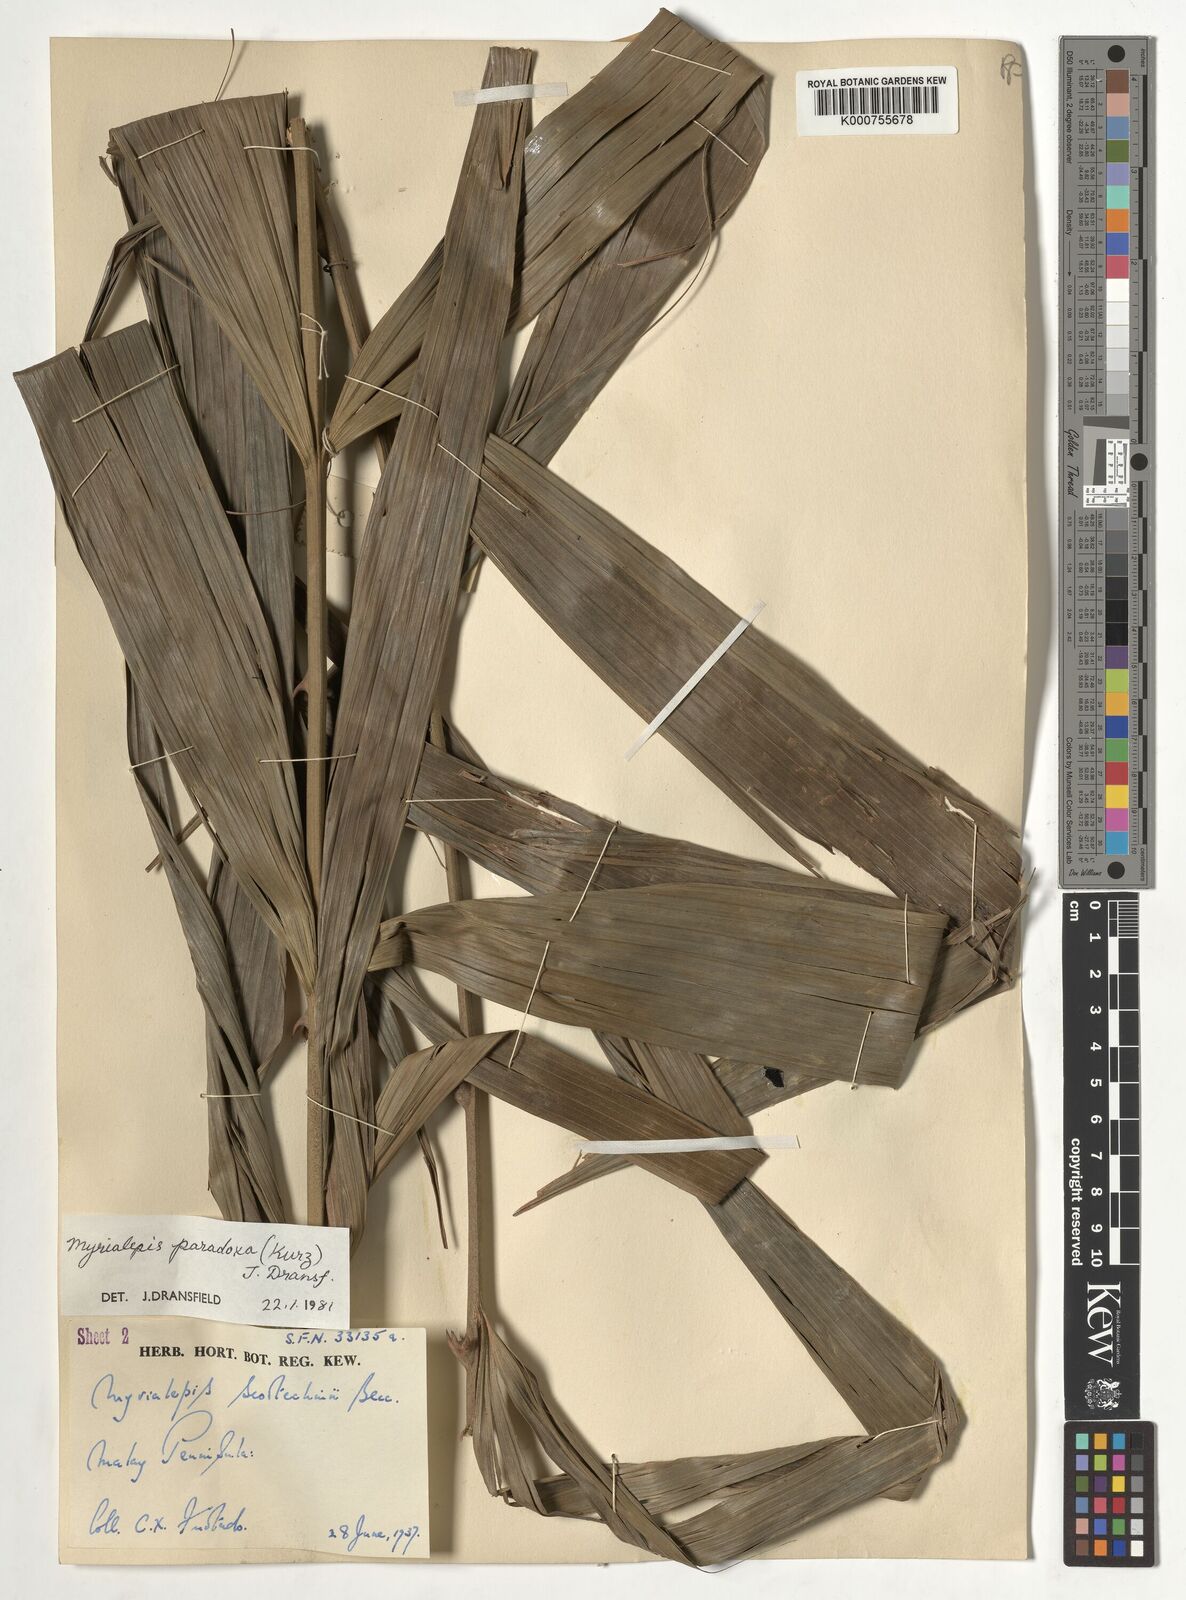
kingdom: Plantae
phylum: Tracheophyta
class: Liliopsida
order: Arecales
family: Arecaceae
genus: Myrialepis
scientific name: Myrialepis paradoxa
